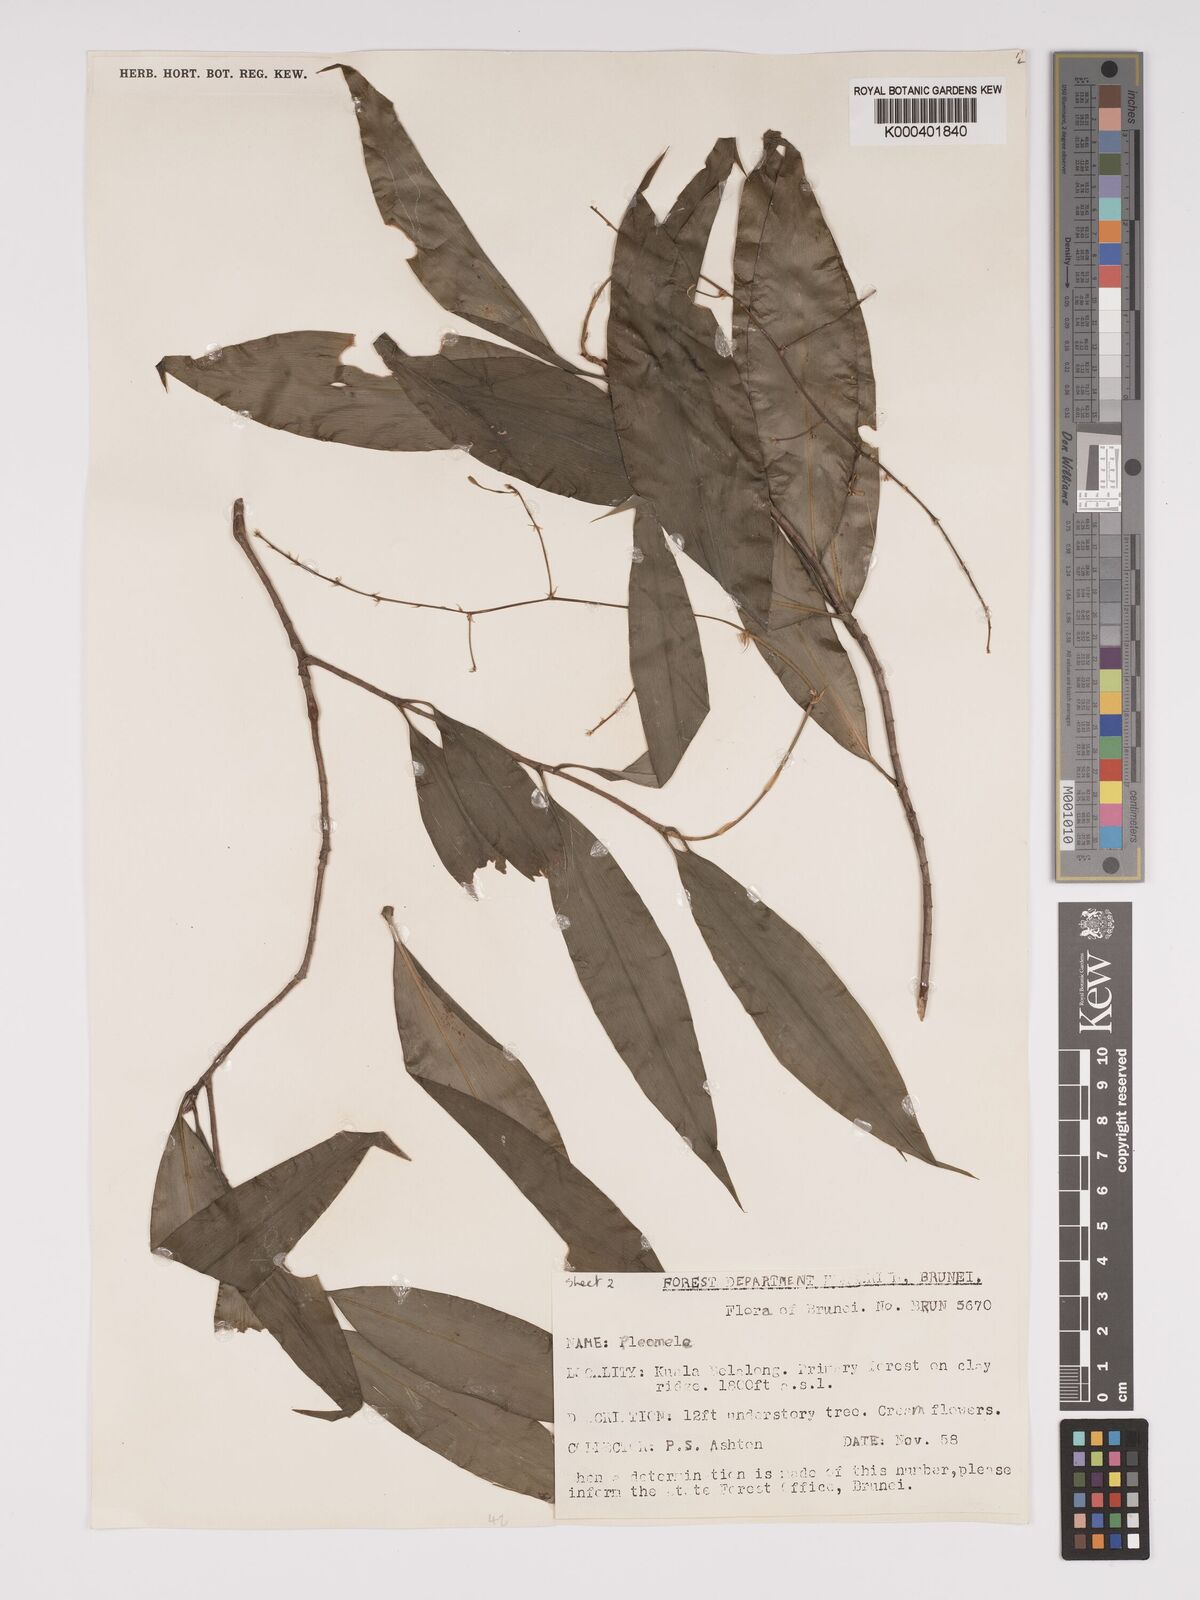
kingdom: Plantae
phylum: Tracheophyta
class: Liliopsida
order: Asparagales
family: Asparagaceae
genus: Dracaena
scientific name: Dracaena
